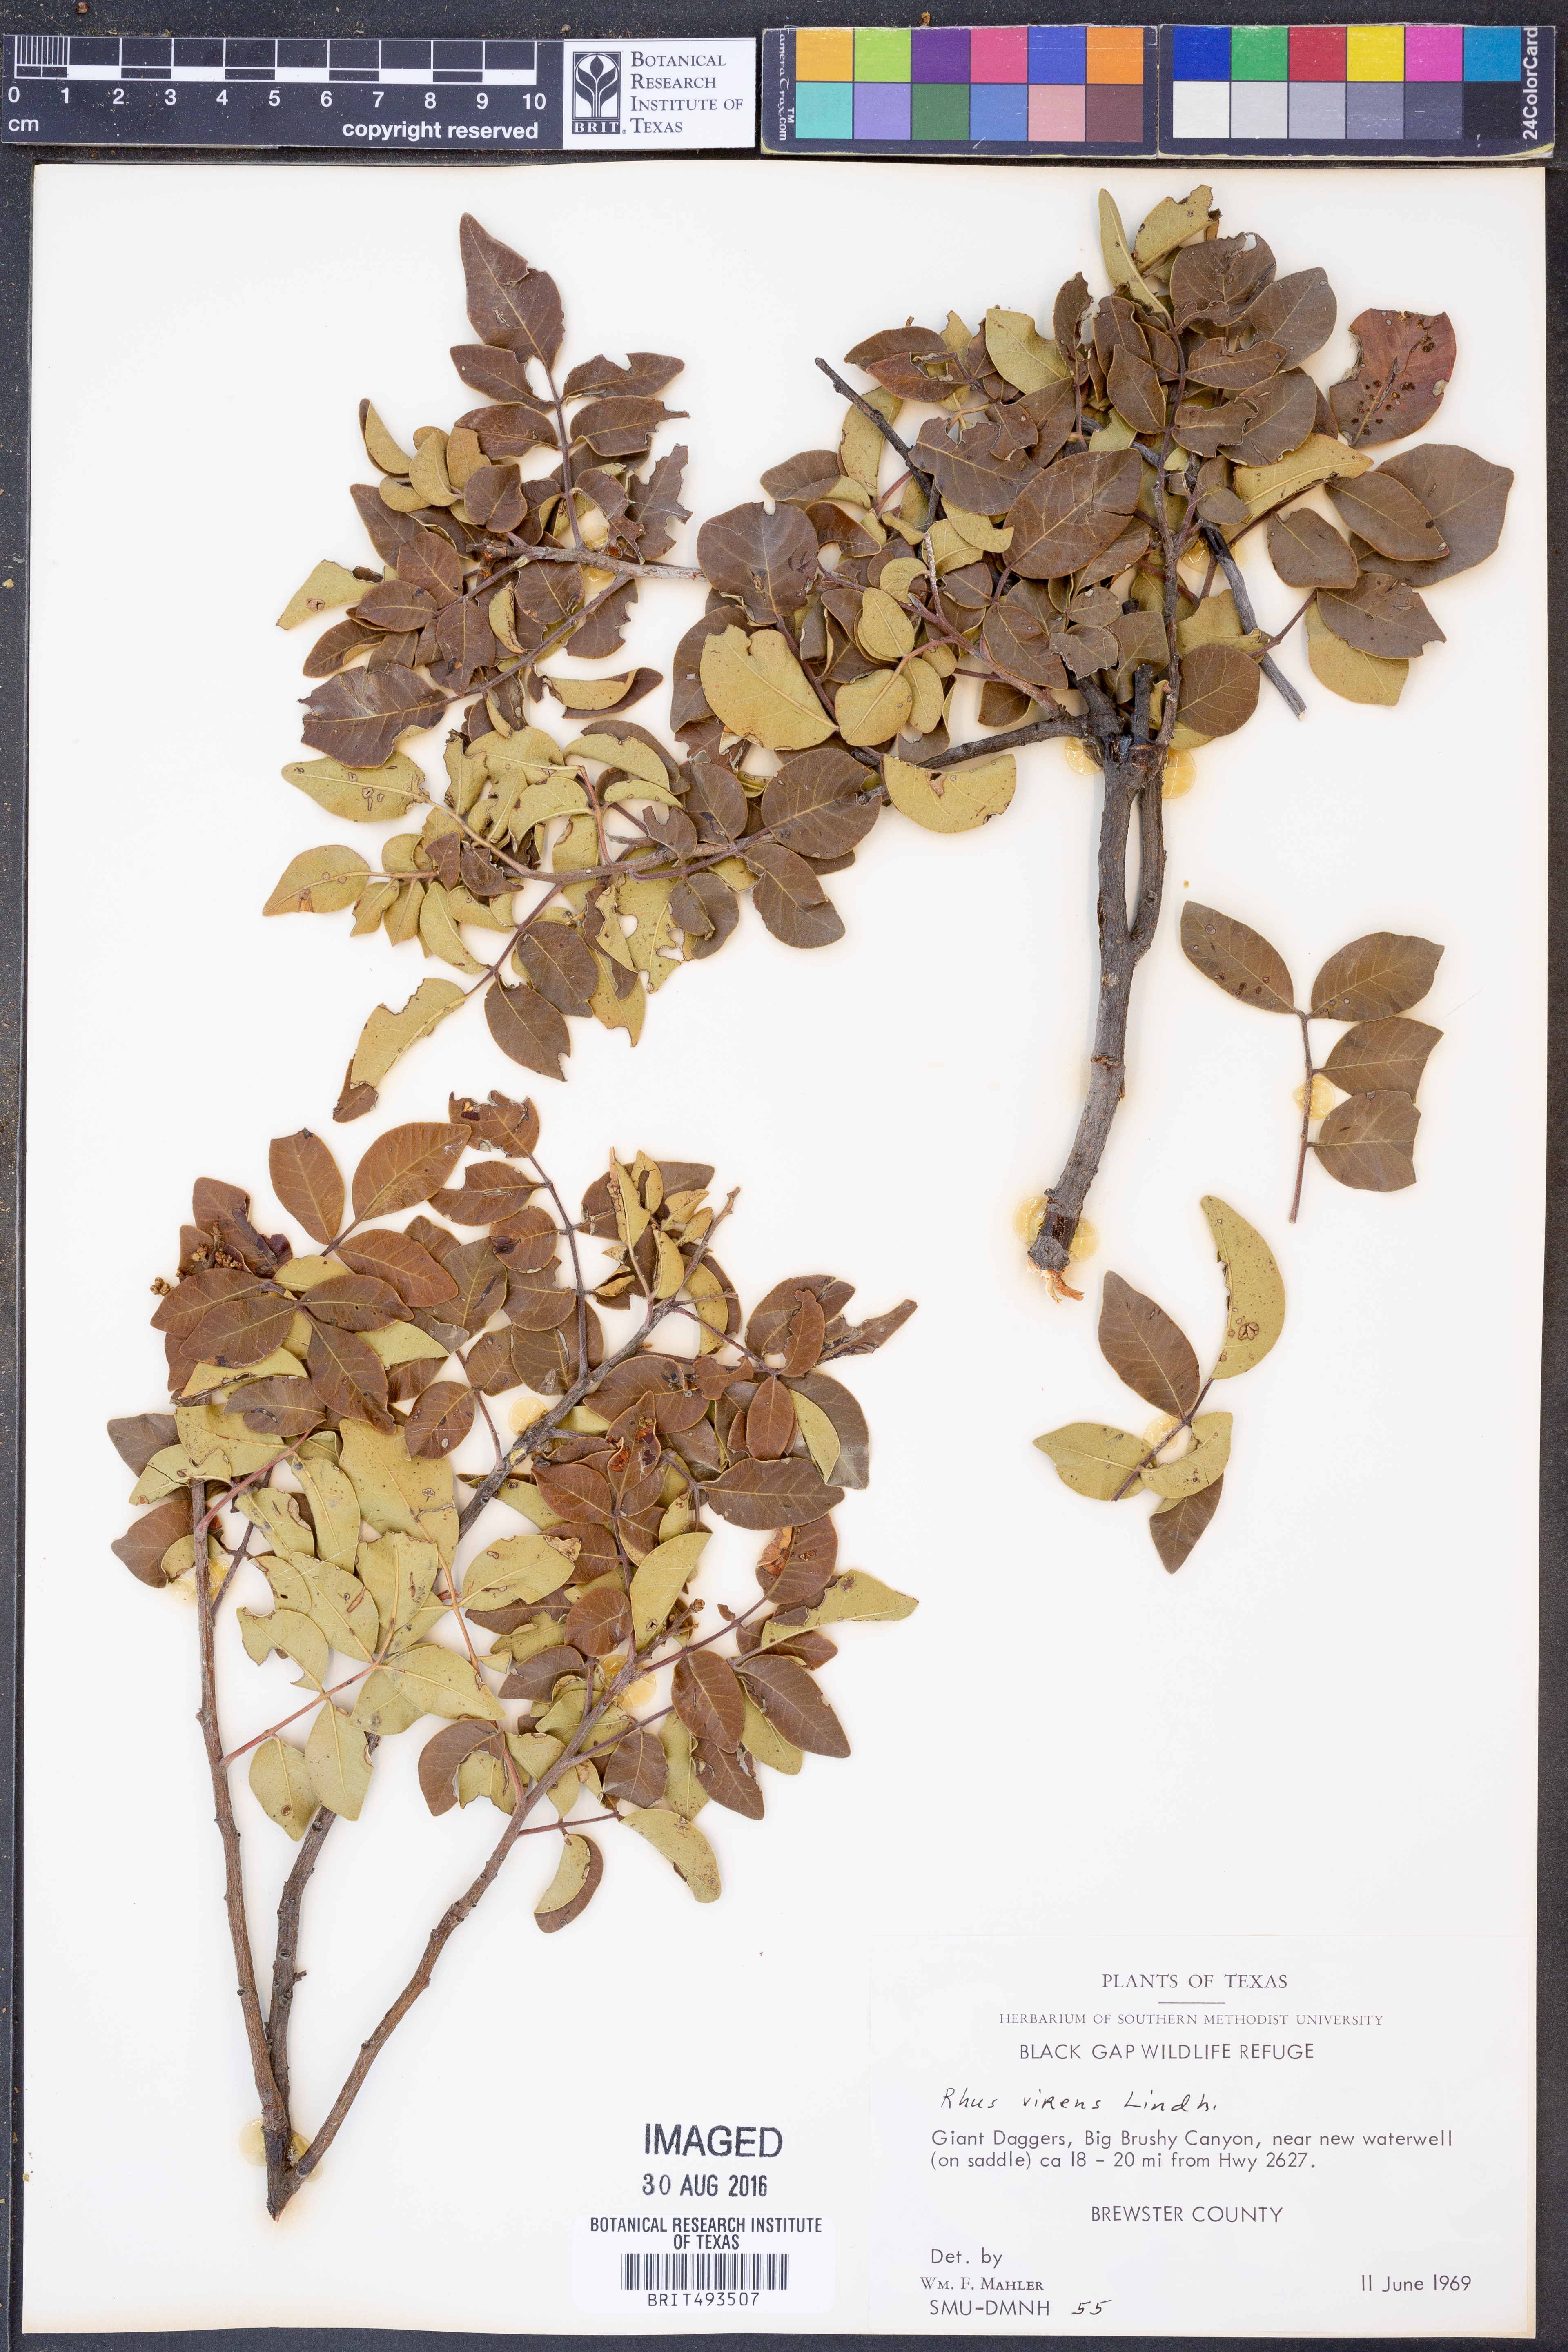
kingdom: Plantae
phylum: Tracheophyta
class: Magnoliopsida
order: Sapindales
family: Anacardiaceae
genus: Rhus
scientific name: Rhus virens
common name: Evergreen sumac
